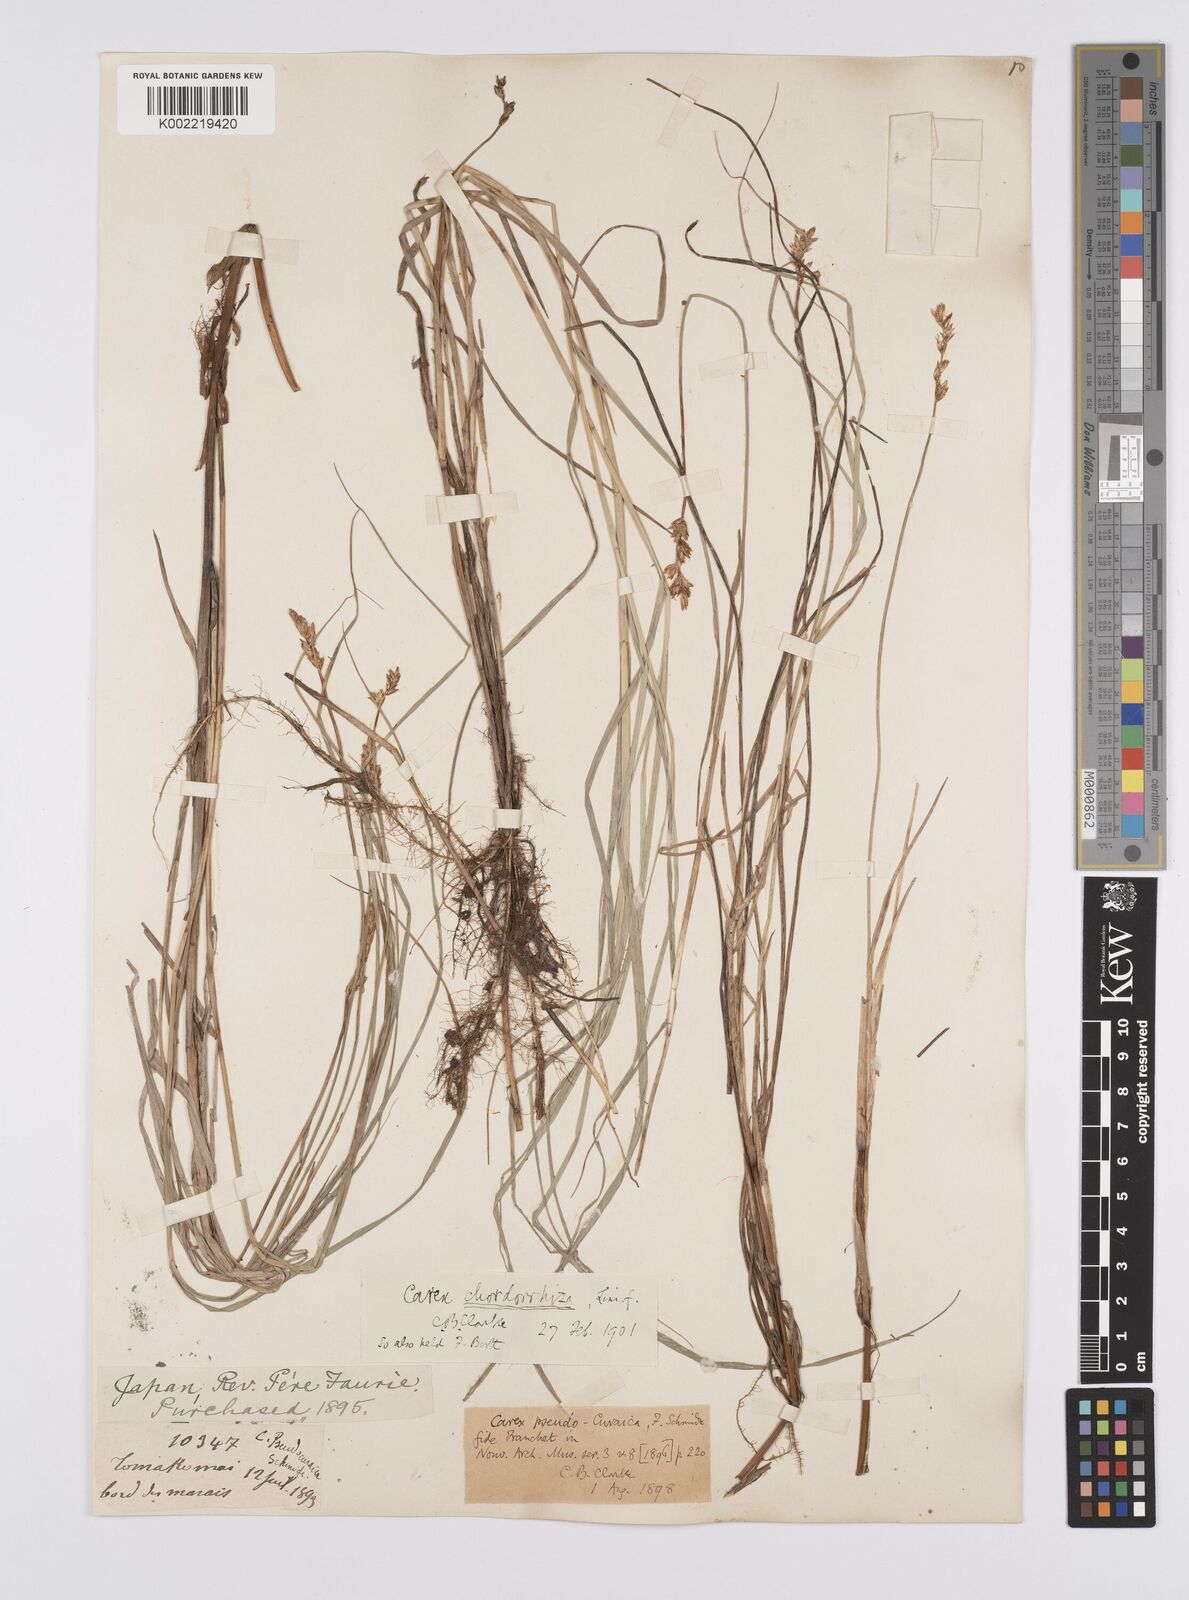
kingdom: Plantae
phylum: Tracheophyta
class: Liliopsida
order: Poales
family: Cyperaceae
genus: Carex
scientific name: Carex chordorrhiza
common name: String sedge
